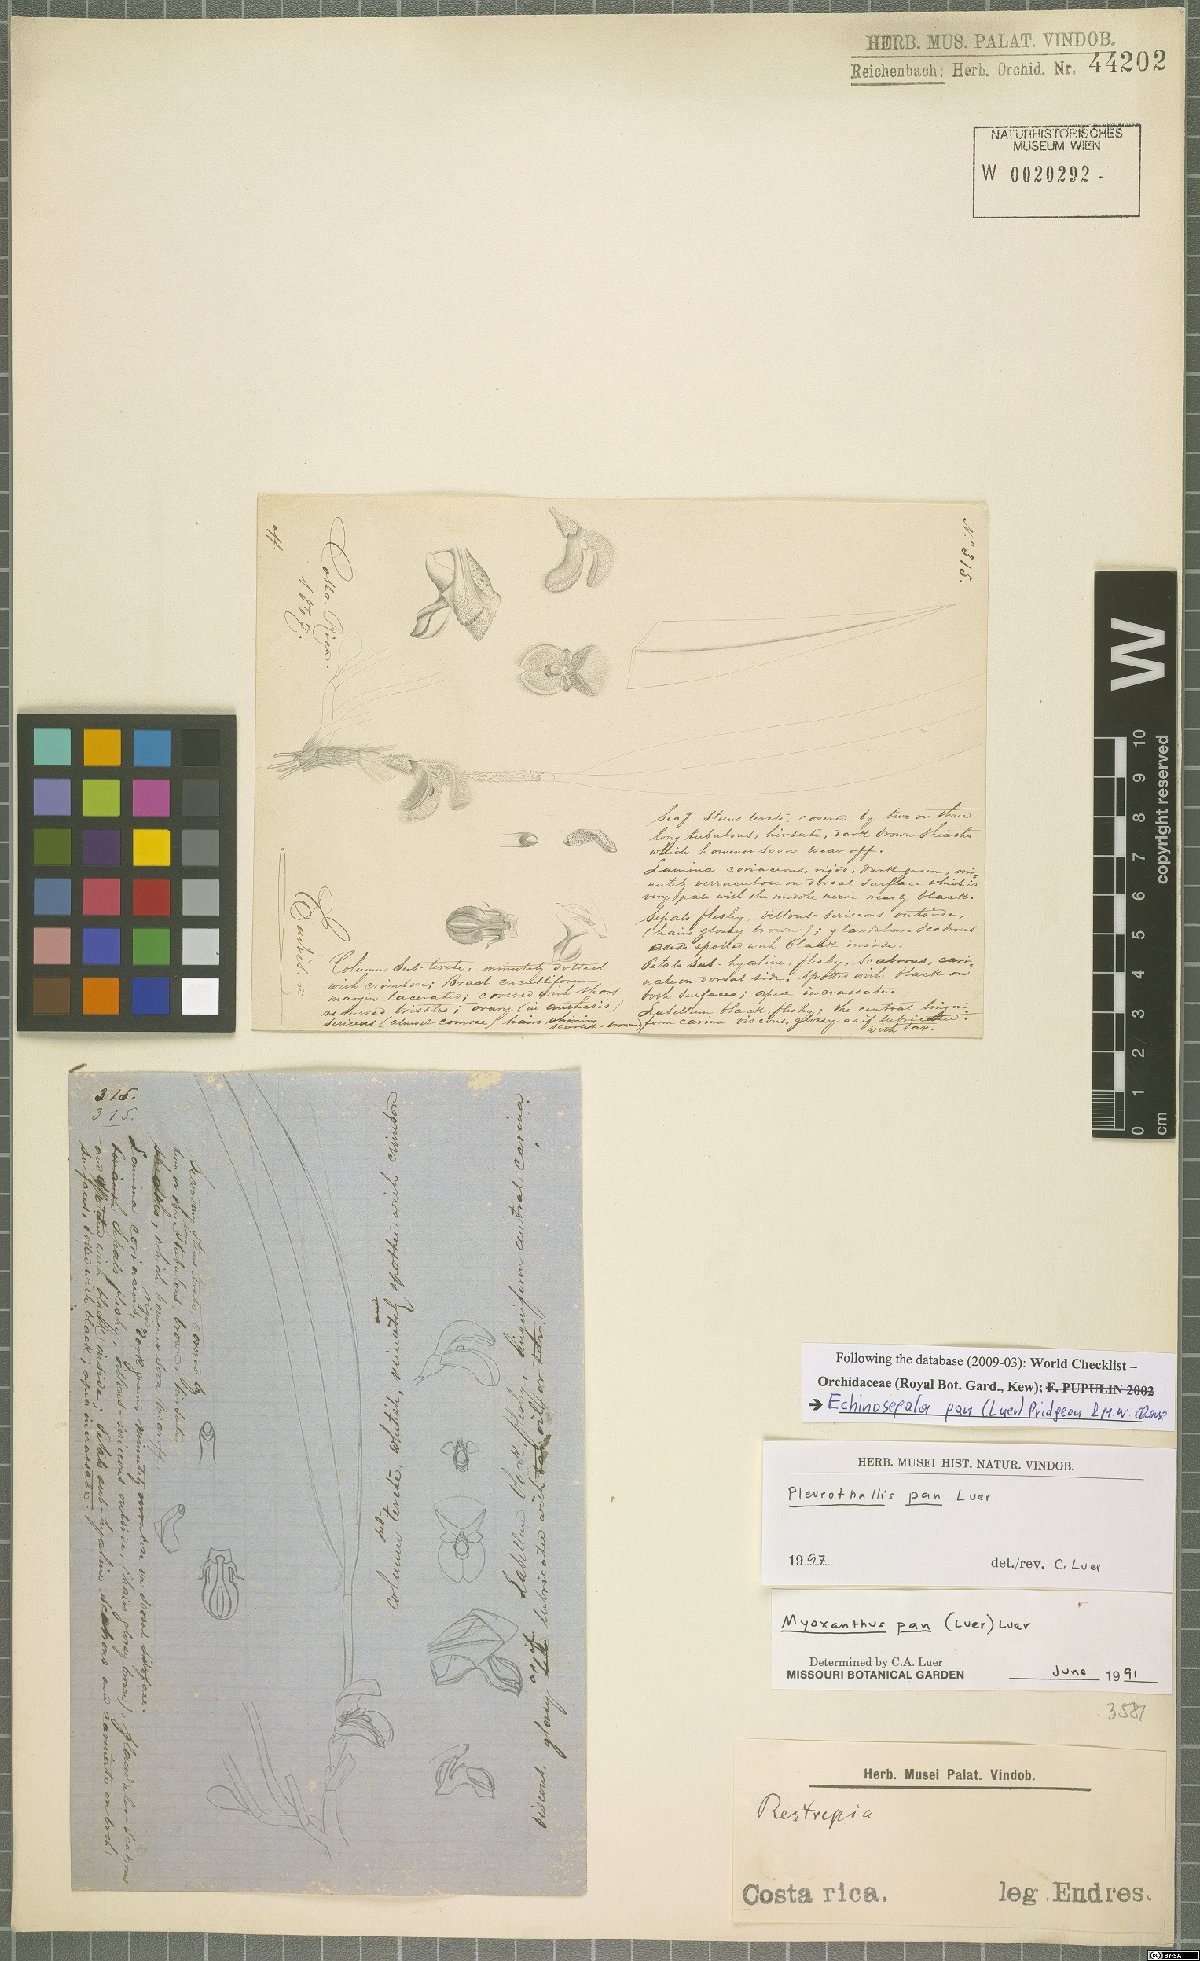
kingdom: Plantae
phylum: Tracheophyta
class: Liliopsida
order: Asparagales
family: Orchidaceae
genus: Echinosepala
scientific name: Echinosepala pan
